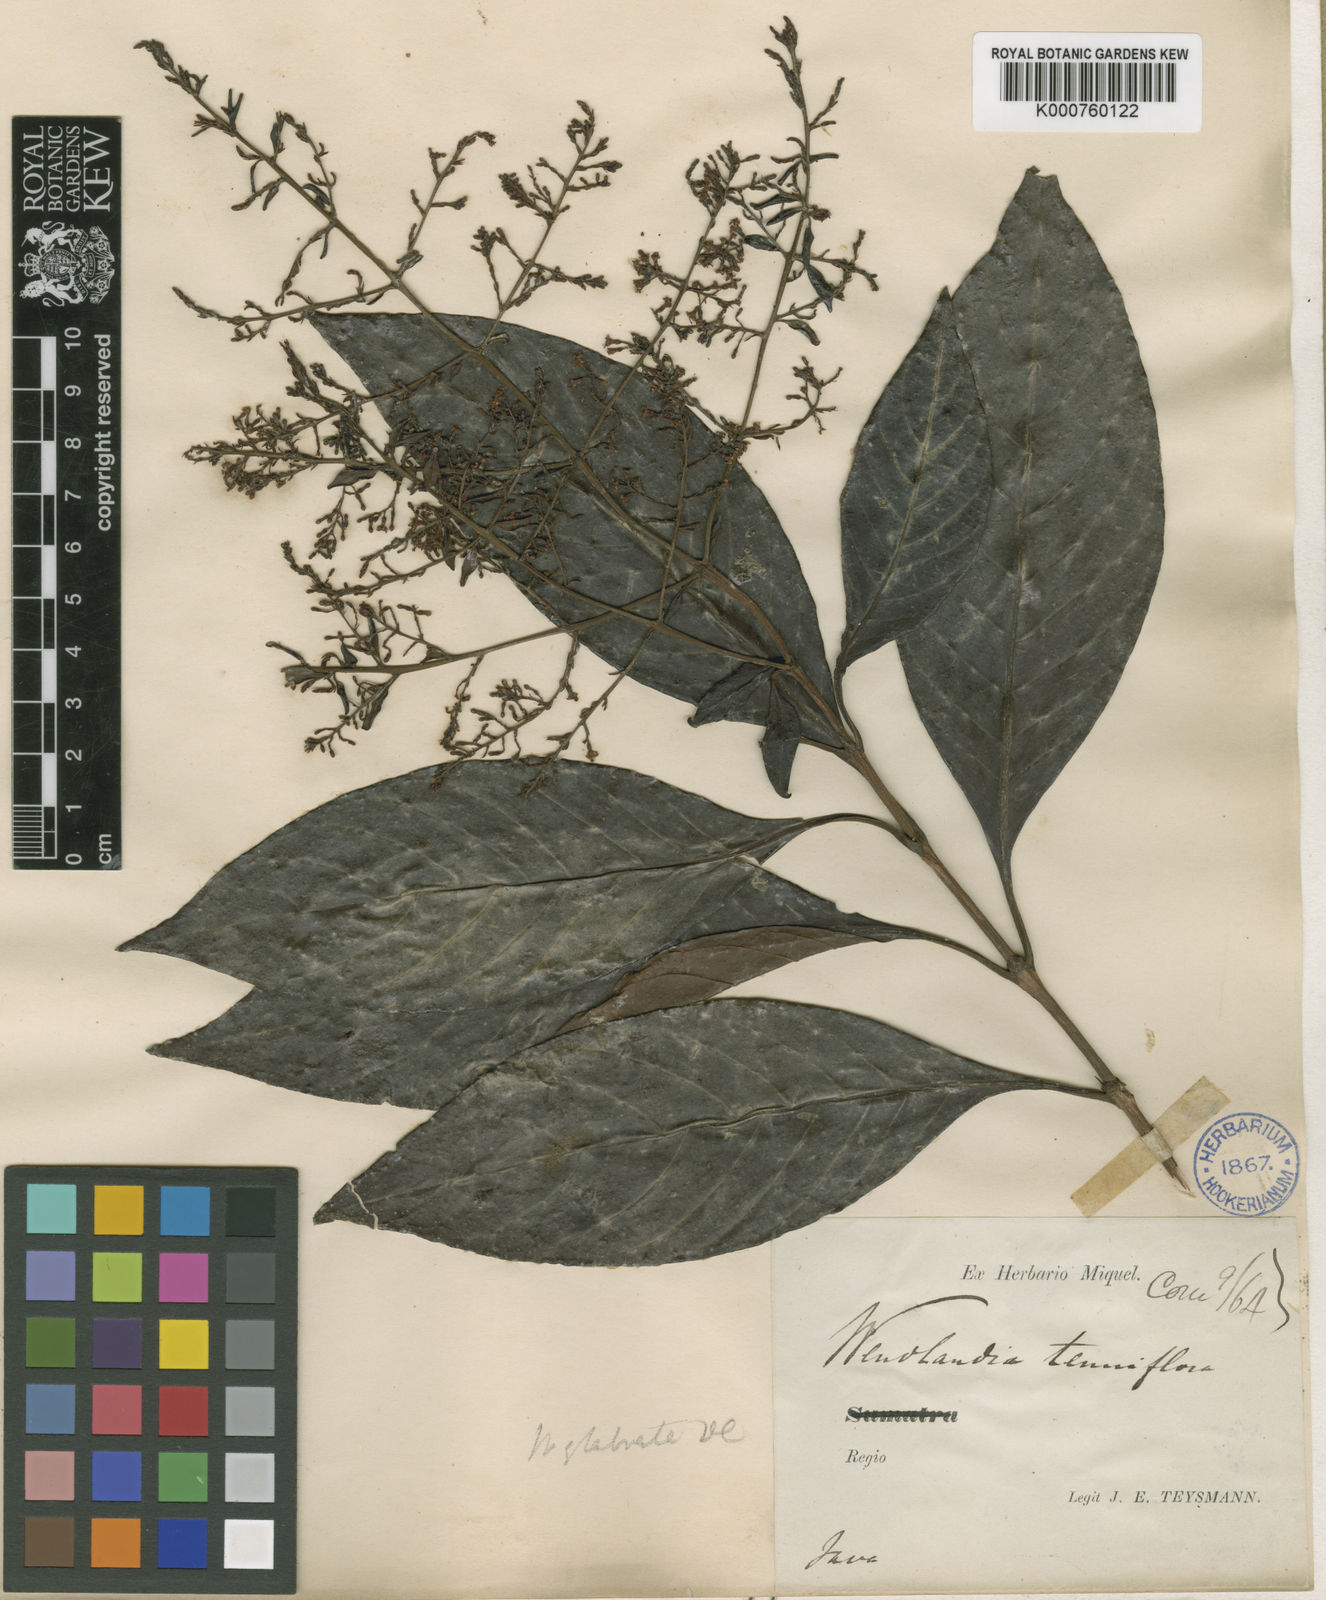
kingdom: Plantae
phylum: Tracheophyta
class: Magnoliopsida
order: Gentianales
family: Rubiaceae
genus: Wendlandia
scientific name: Wendlandia glabrata
